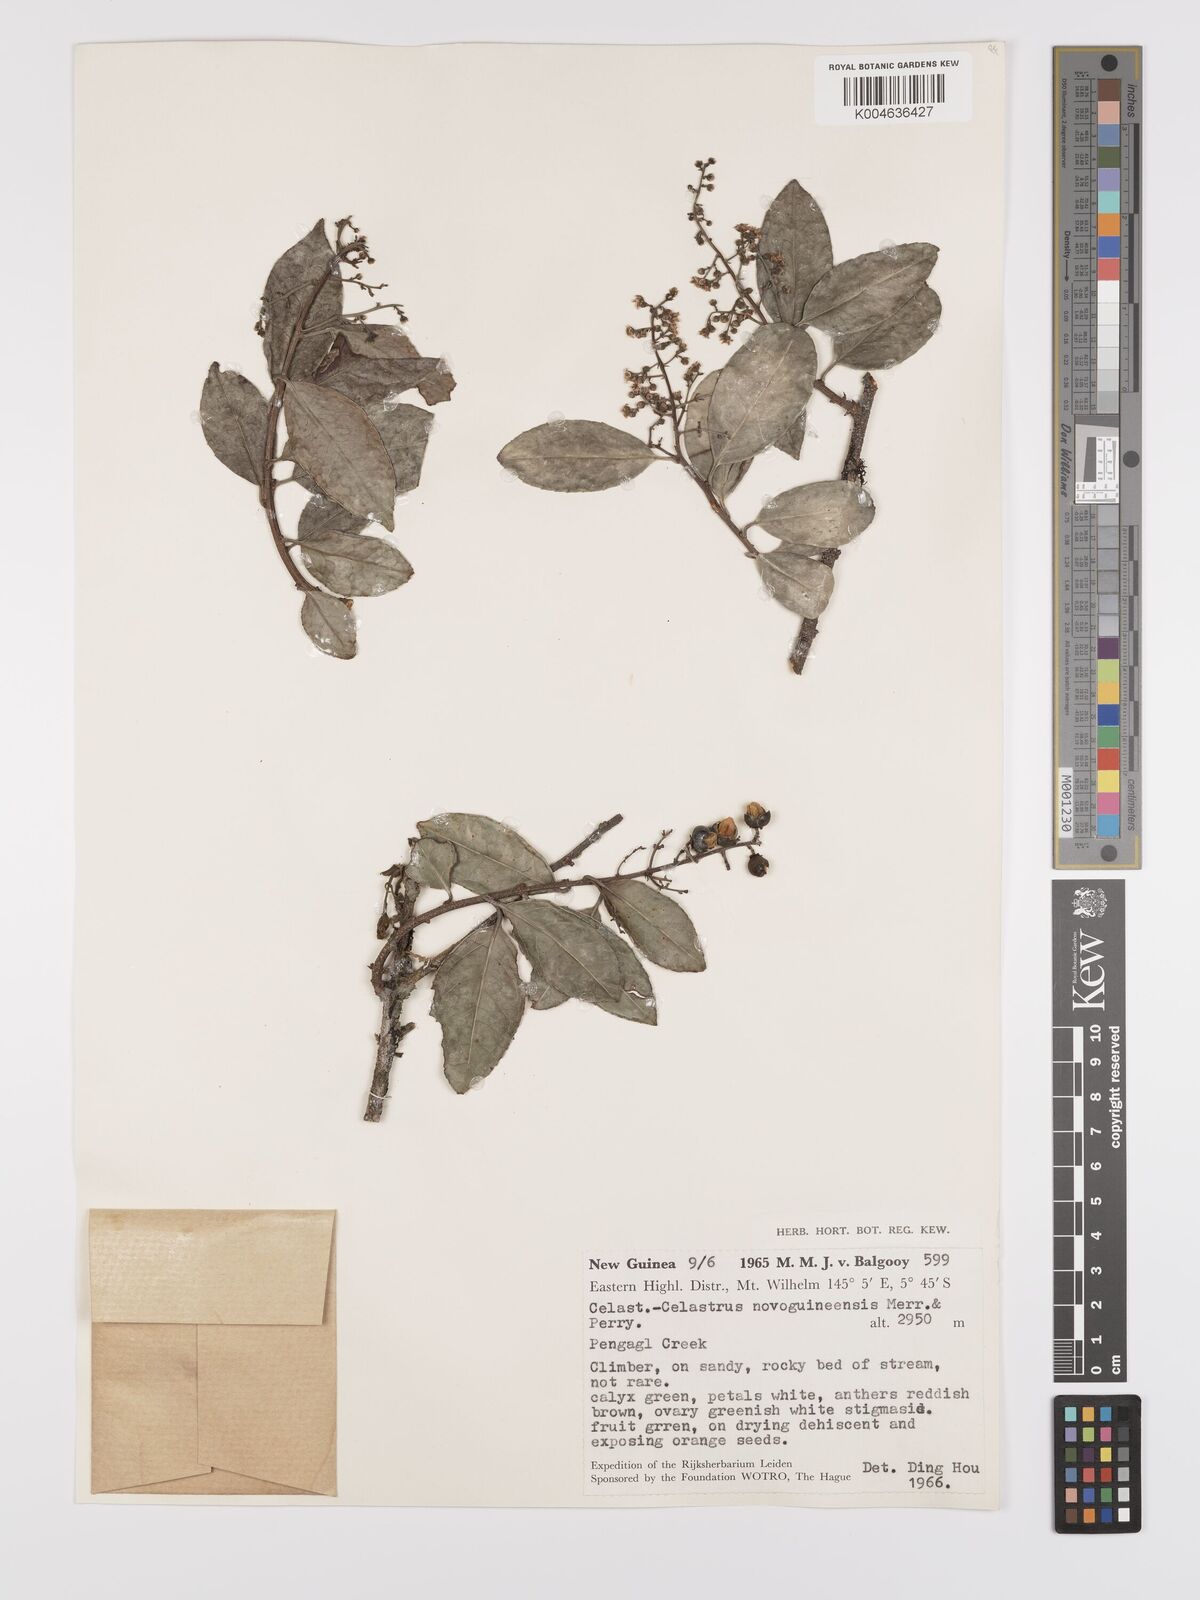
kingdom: Plantae
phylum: Tracheophyta
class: Magnoliopsida
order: Celastrales
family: Celastraceae
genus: Celastrus
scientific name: Celastrus novoguineensis
